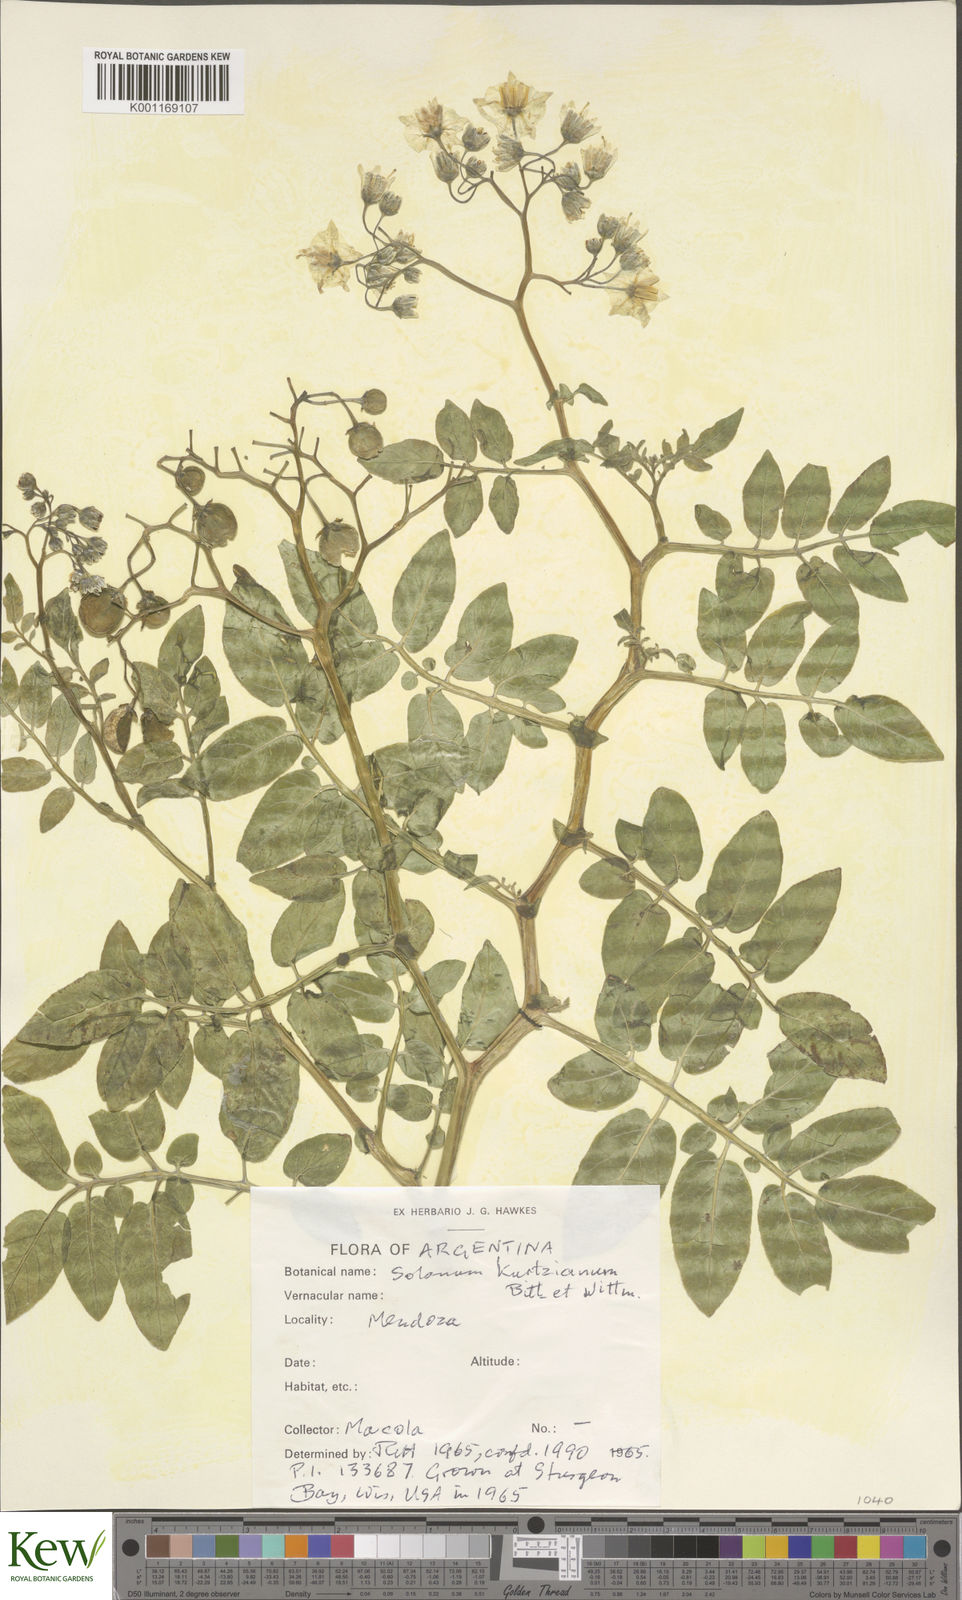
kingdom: Plantae
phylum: Tracheophyta
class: Magnoliopsida
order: Solanales
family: Solanaceae
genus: Solanum
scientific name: Solanum kurtzianum
